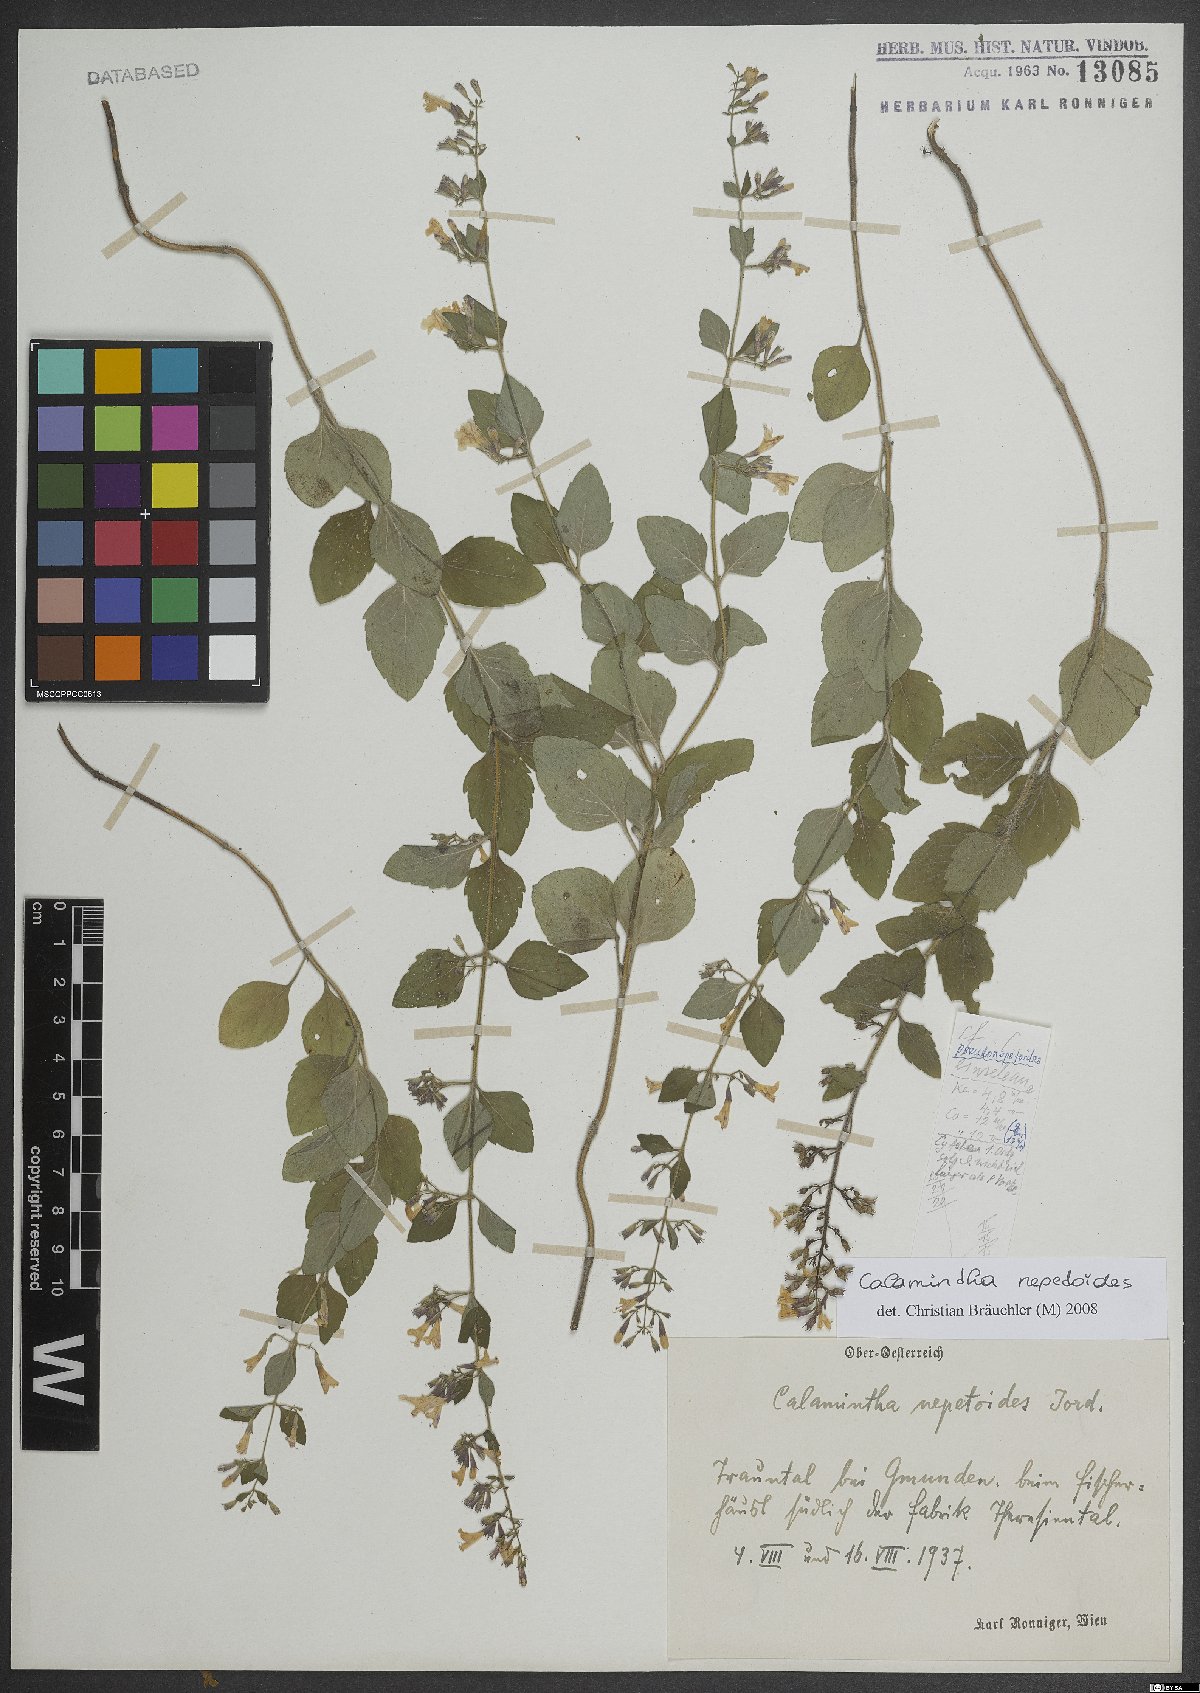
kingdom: Plantae
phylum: Tracheophyta
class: Magnoliopsida
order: Lamiales
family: Lamiaceae
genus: Clinopodium
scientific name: Clinopodium nepeta
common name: Lesser calamint
